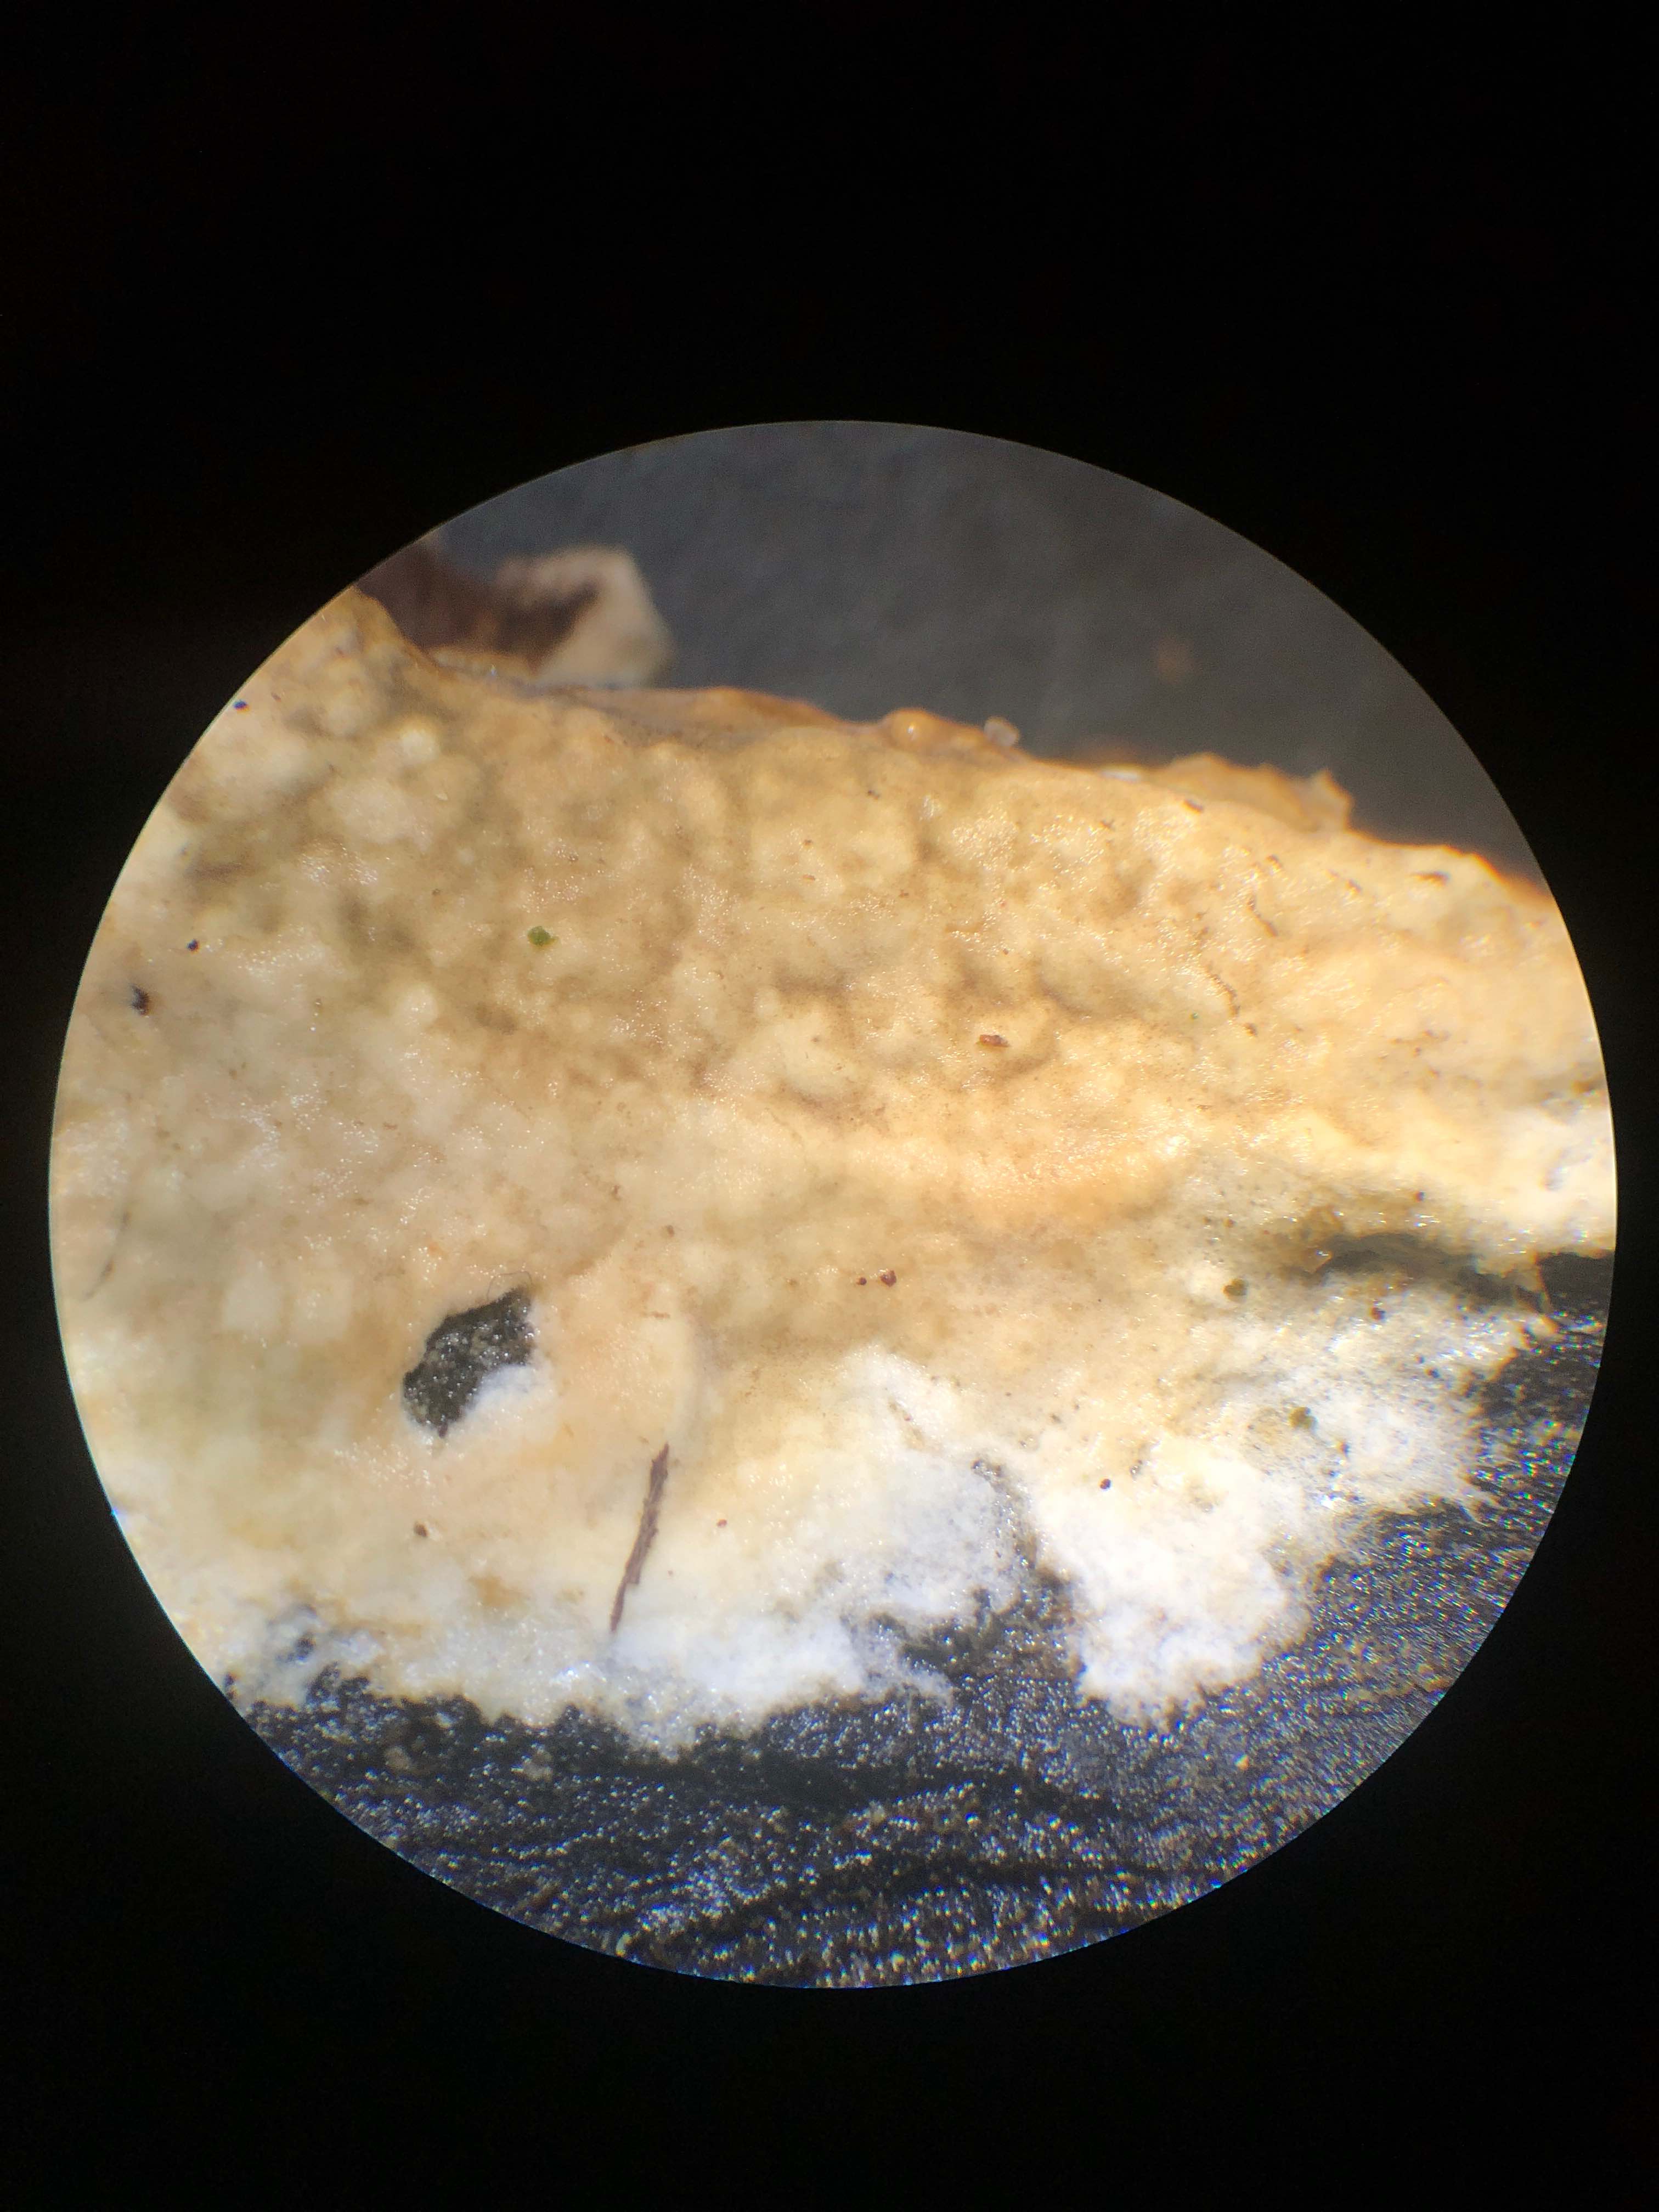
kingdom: Fungi
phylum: Basidiomycota
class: Agaricomycetes
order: Boletales
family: Coniophoraceae
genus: Coniophora
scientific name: Coniophora puteana
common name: gul tømmersvamp
